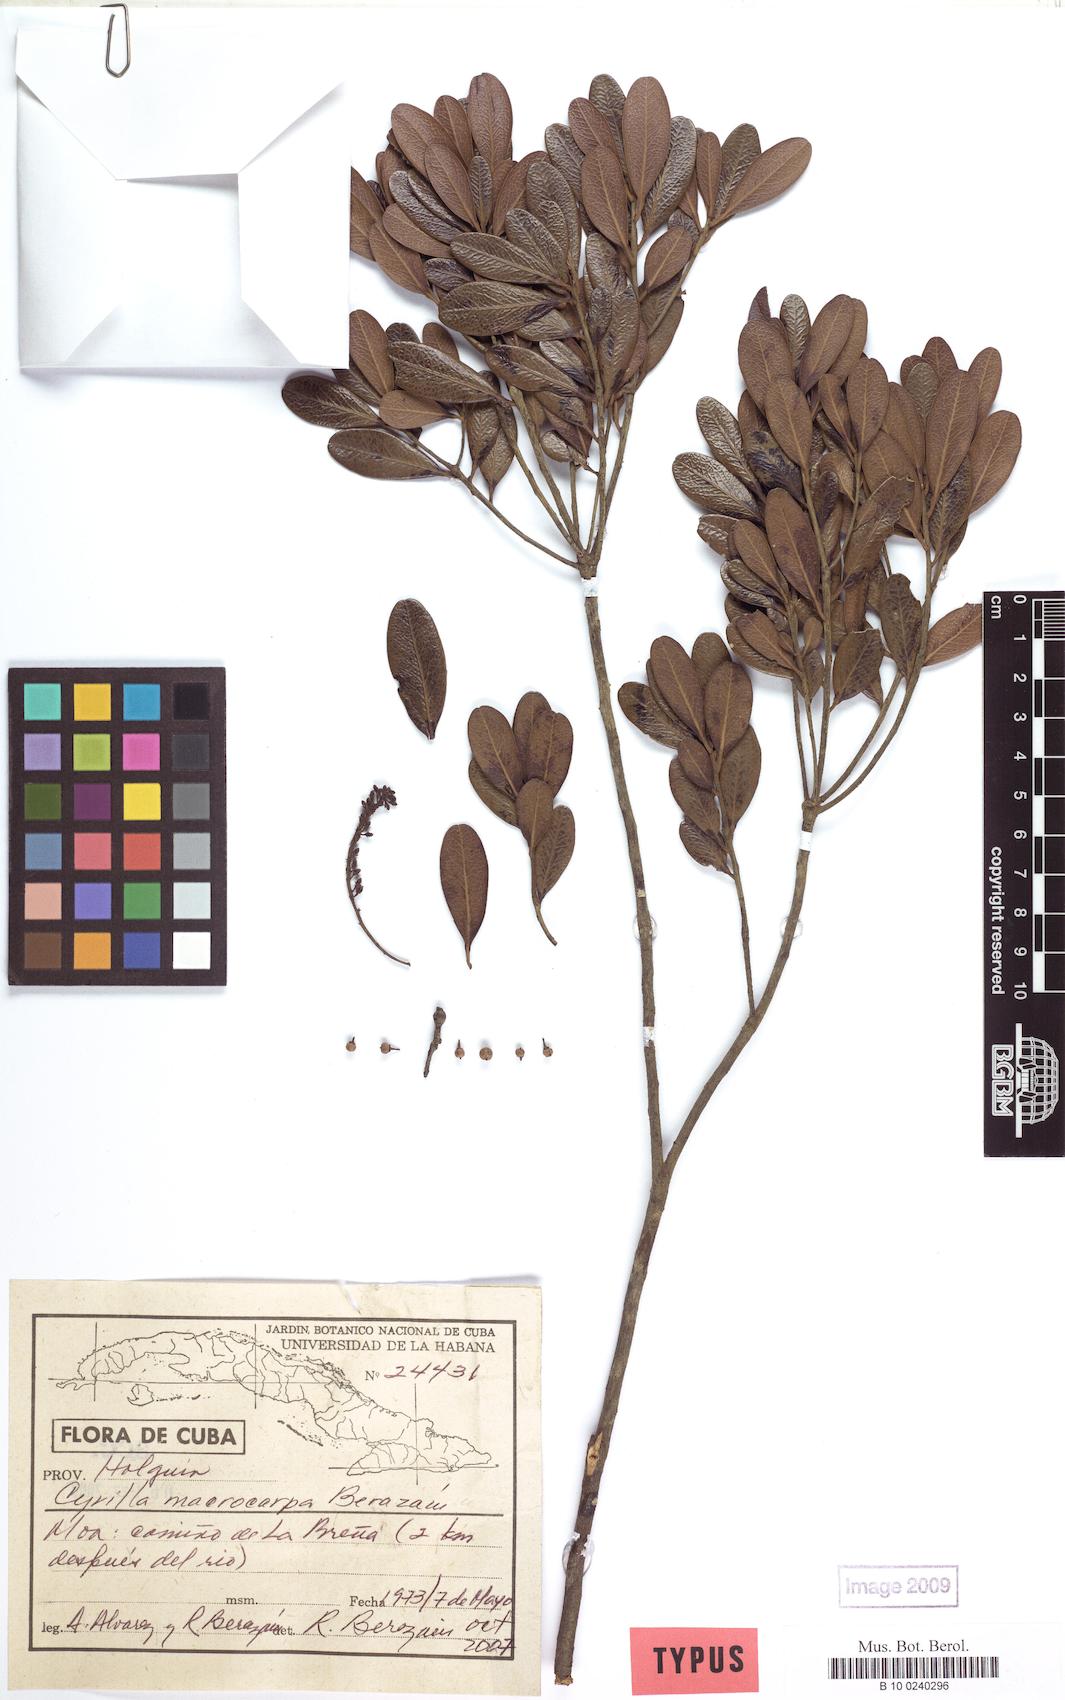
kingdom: Plantae
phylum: Tracheophyta
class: Magnoliopsida
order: Ericales
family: Cyrillaceae
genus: Cyrilla
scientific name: Cyrilla macrocarpa
